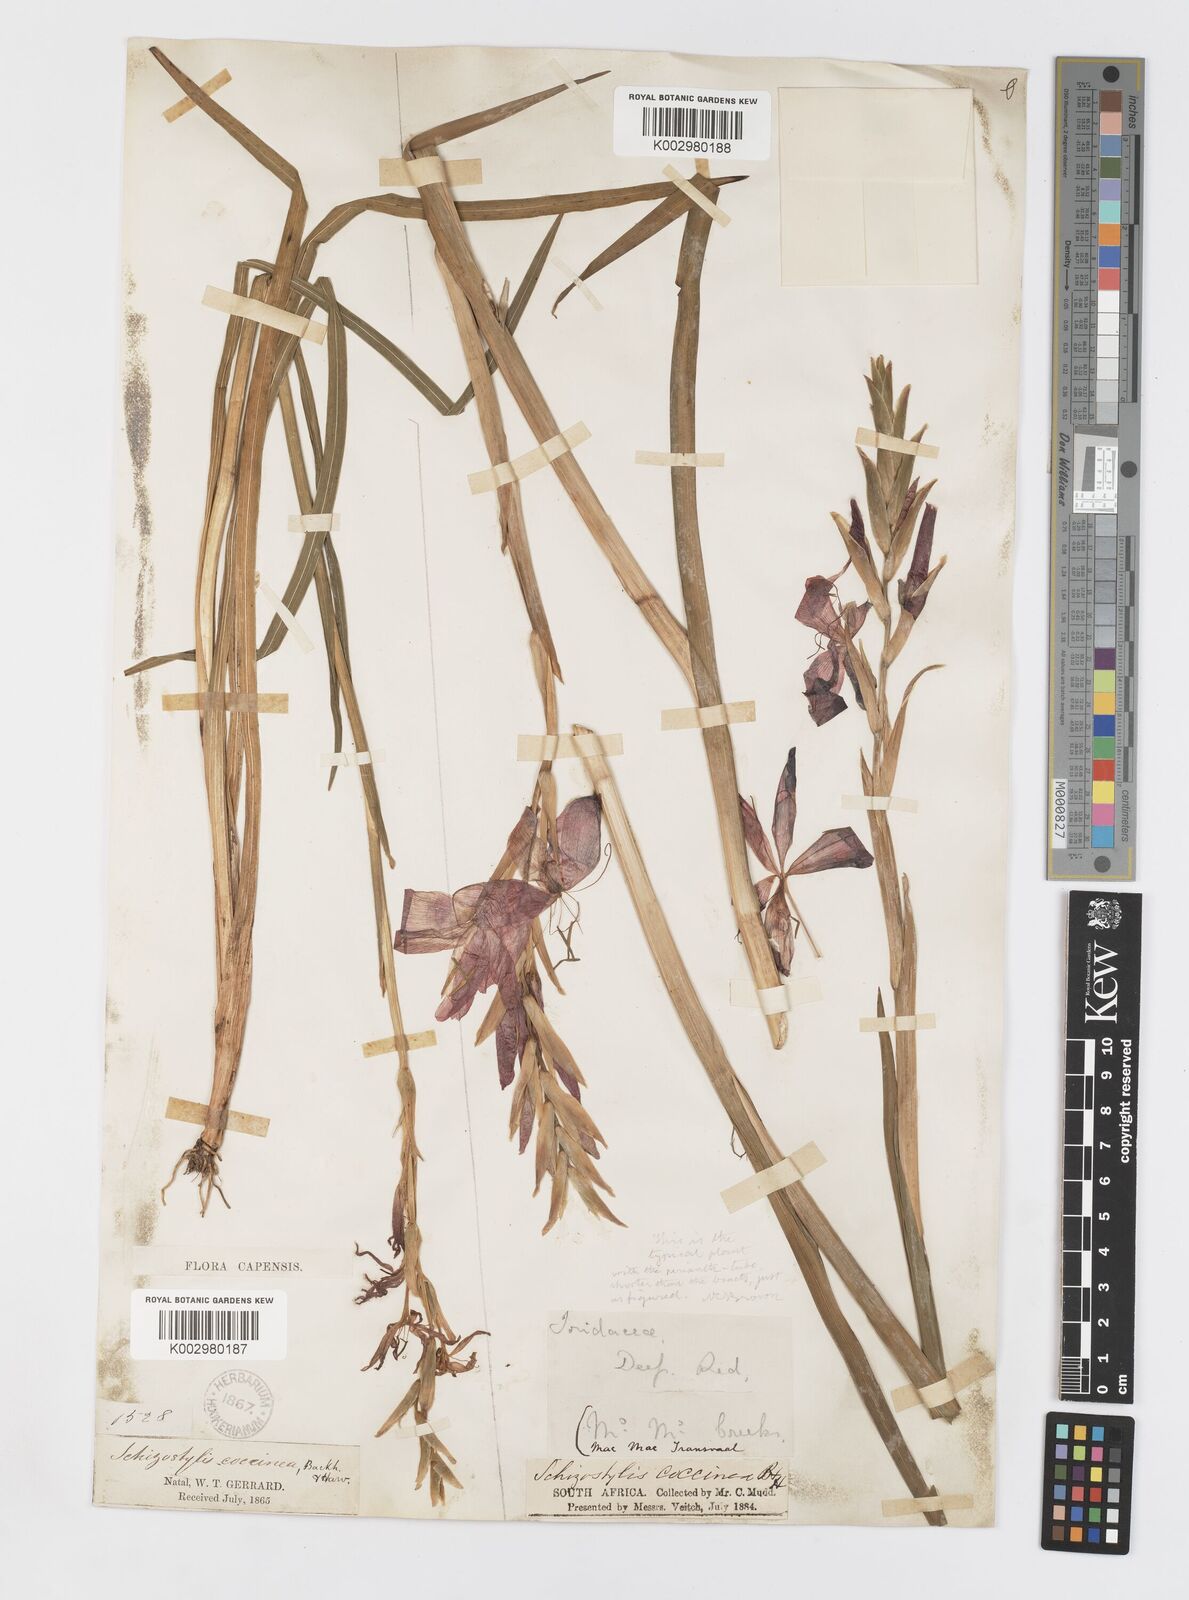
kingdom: Plantae
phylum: Tracheophyta
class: Liliopsida
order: Asparagales
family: Iridaceae
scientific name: Iridaceae
